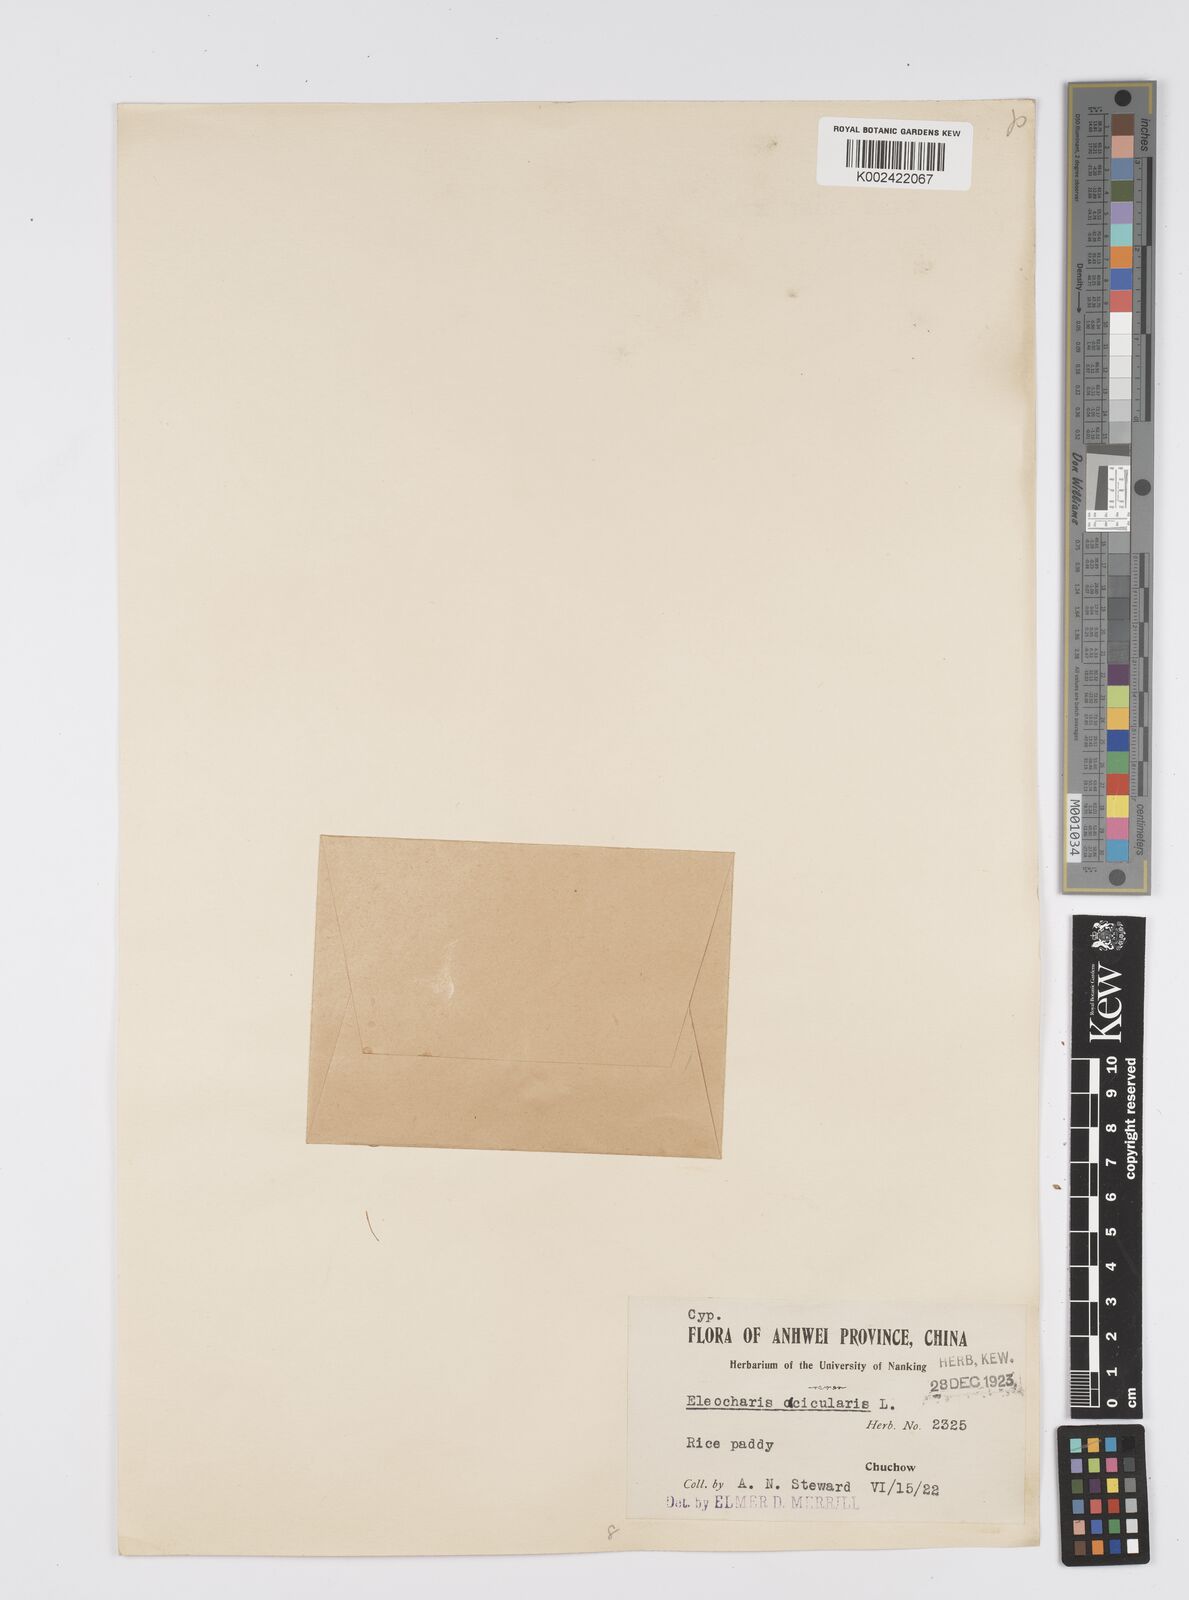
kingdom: Plantae
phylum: Tracheophyta
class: Liliopsida
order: Poales
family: Cyperaceae
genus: Eleocharis
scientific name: Eleocharis acicularis
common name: Needle spike-rush
